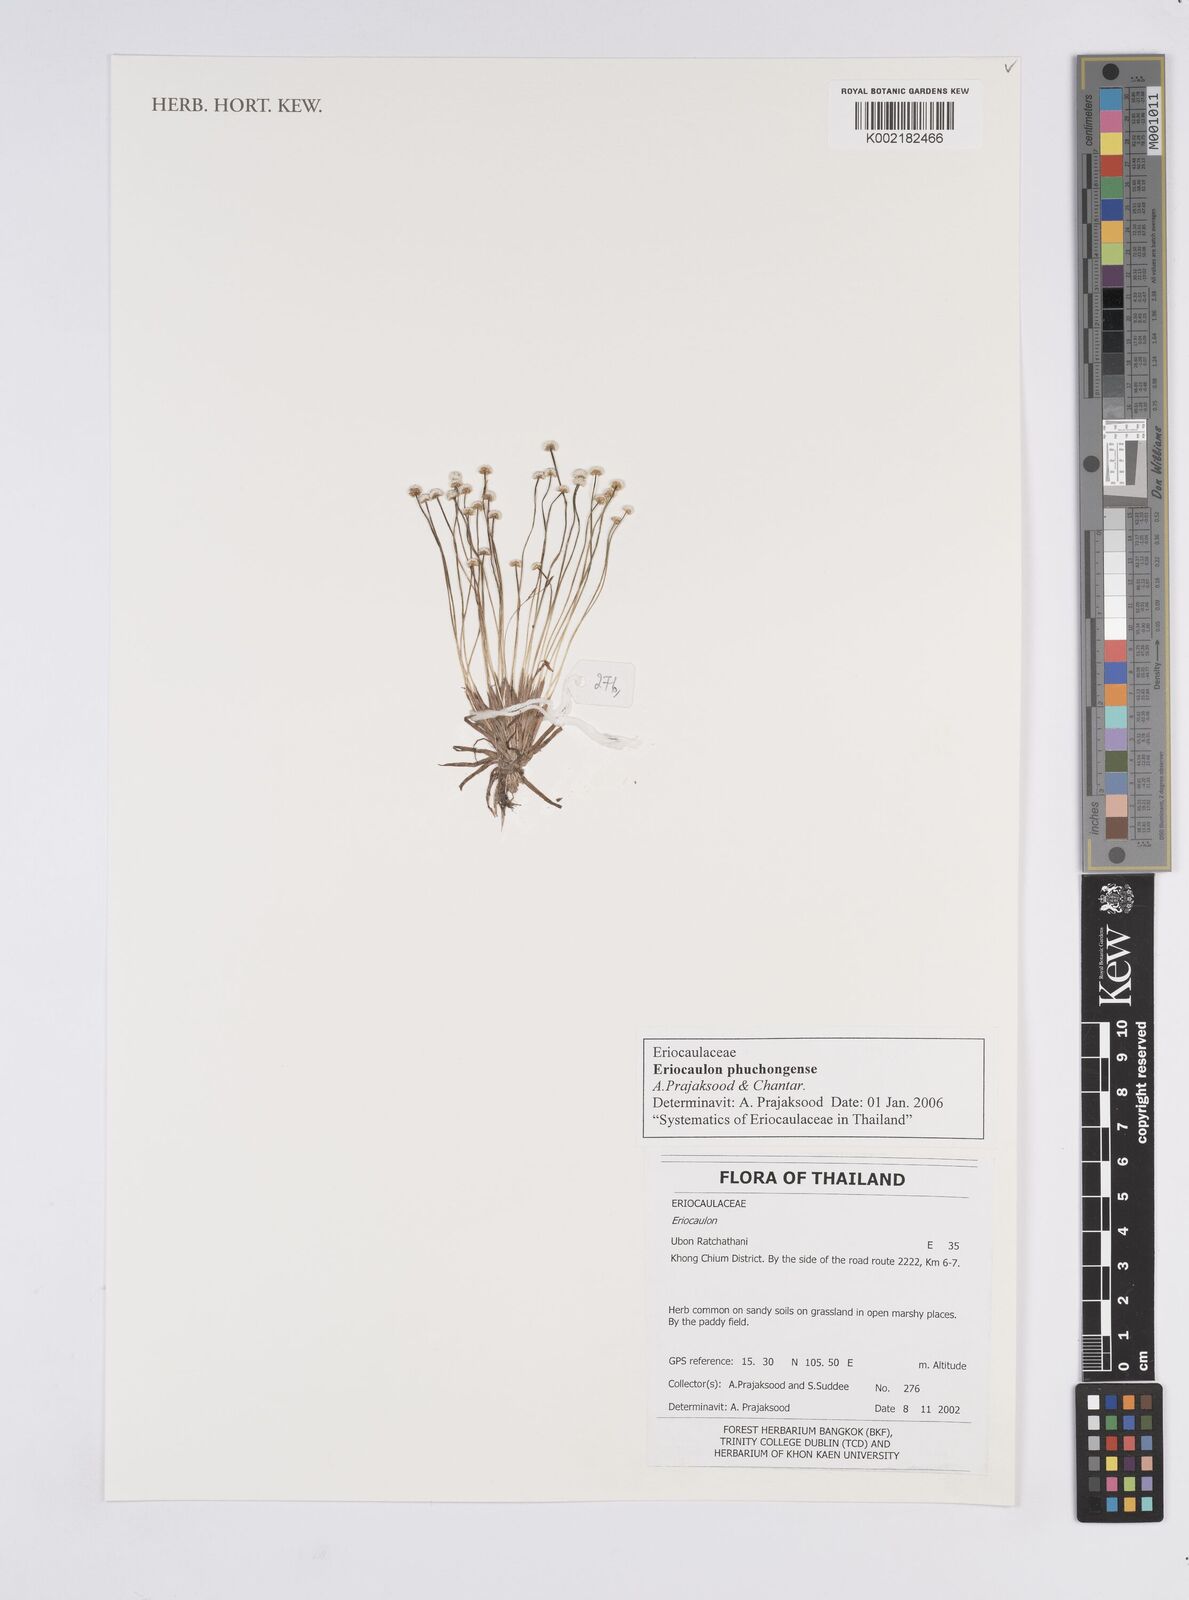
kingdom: Plantae
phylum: Tracheophyta
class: Liliopsida
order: Poales
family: Eriocaulaceae
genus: Eriocaulon
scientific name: Eriocaulon phuchongense
